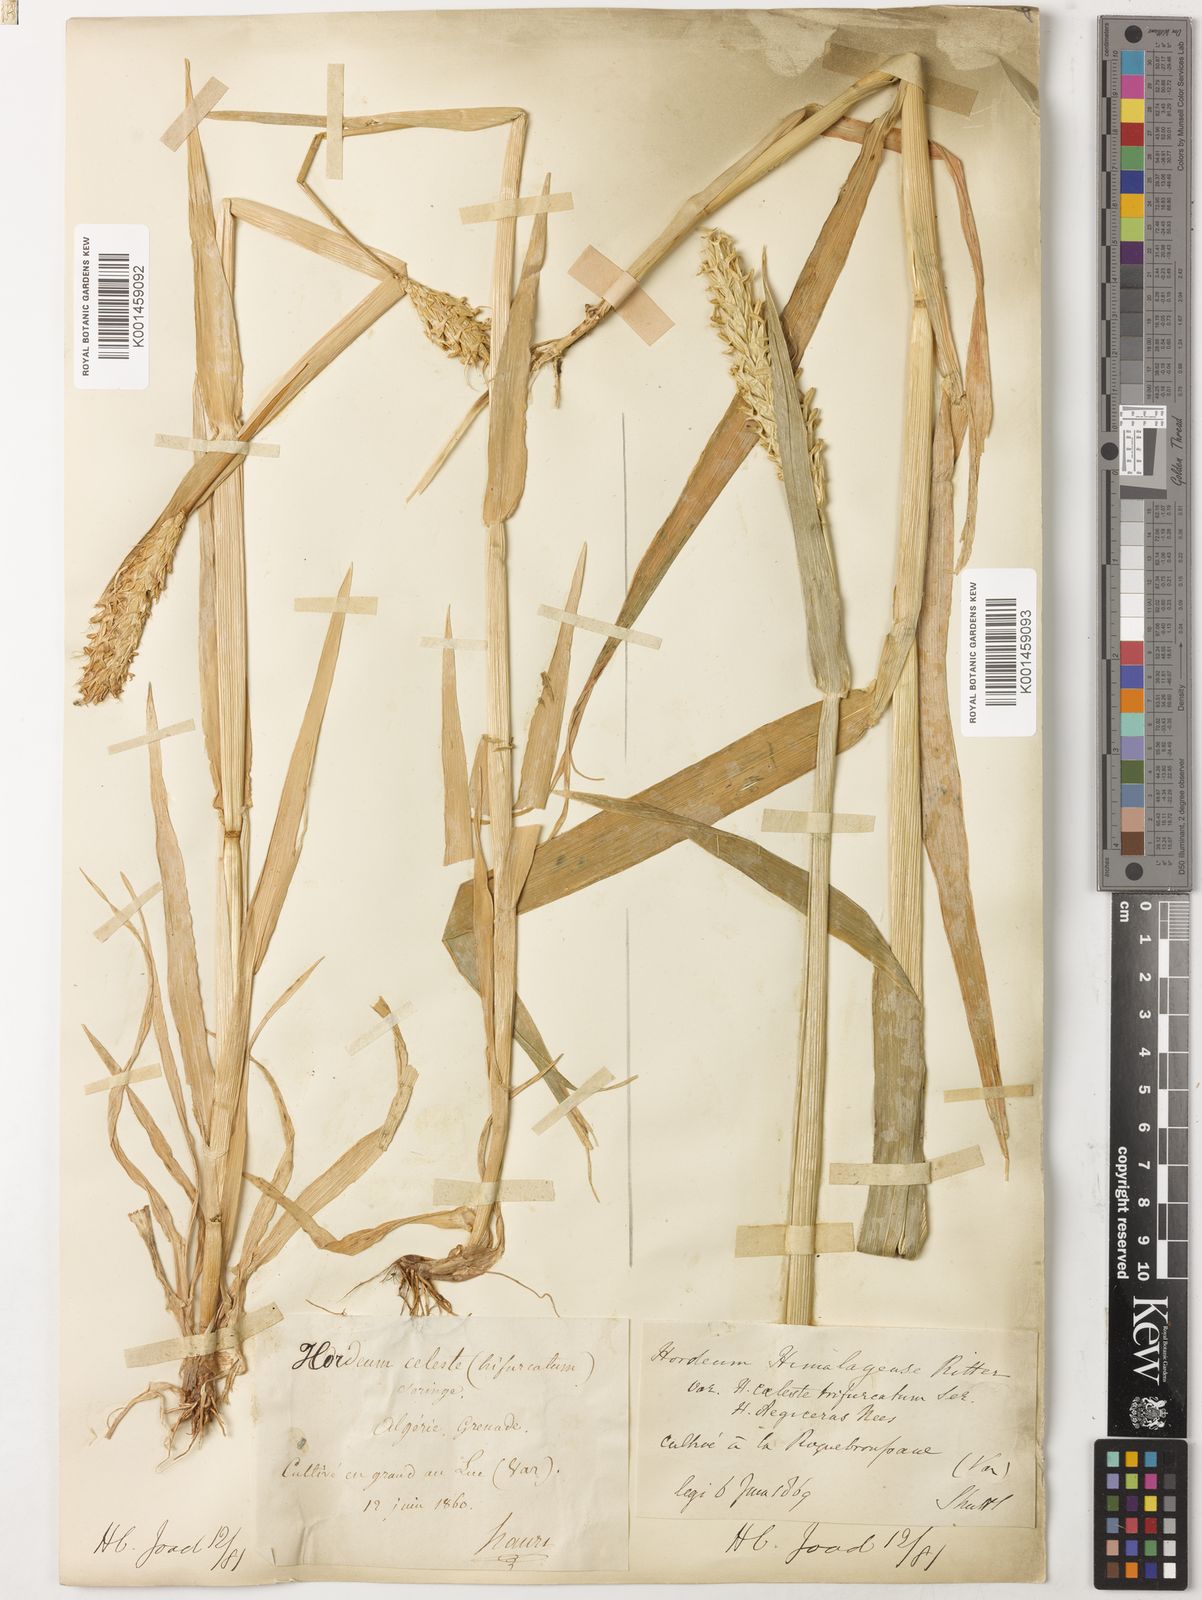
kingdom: Plantae
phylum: Tracheophyta
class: Liliopsida
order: Poales
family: Poaceae
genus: Hordeum
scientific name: Hordeum vulgare
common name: Common barley
